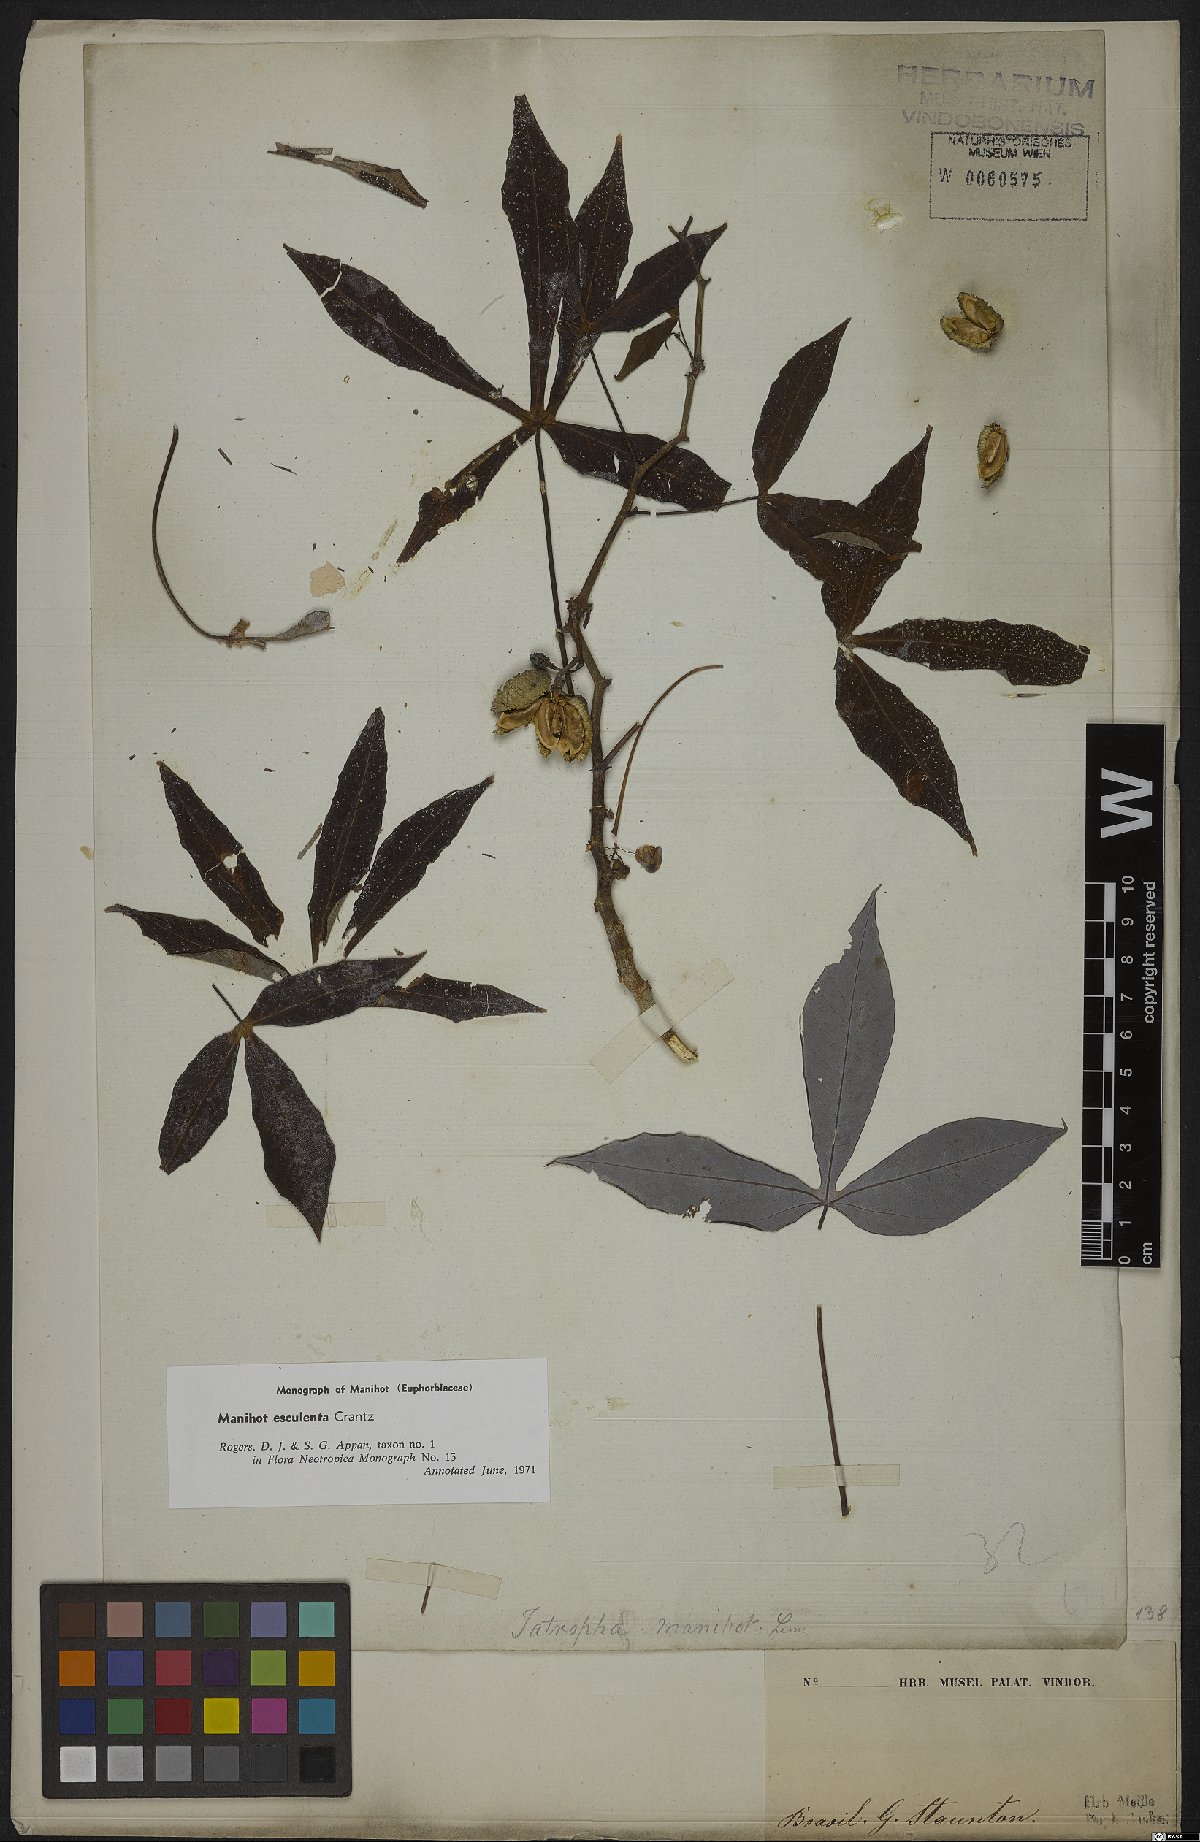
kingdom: Plantae
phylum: Tracheophyta
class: Magnoliopsida
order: Malpighiales
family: Euphorbiaceae
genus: Manihot
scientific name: Manihot esculenta
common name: Cassava
